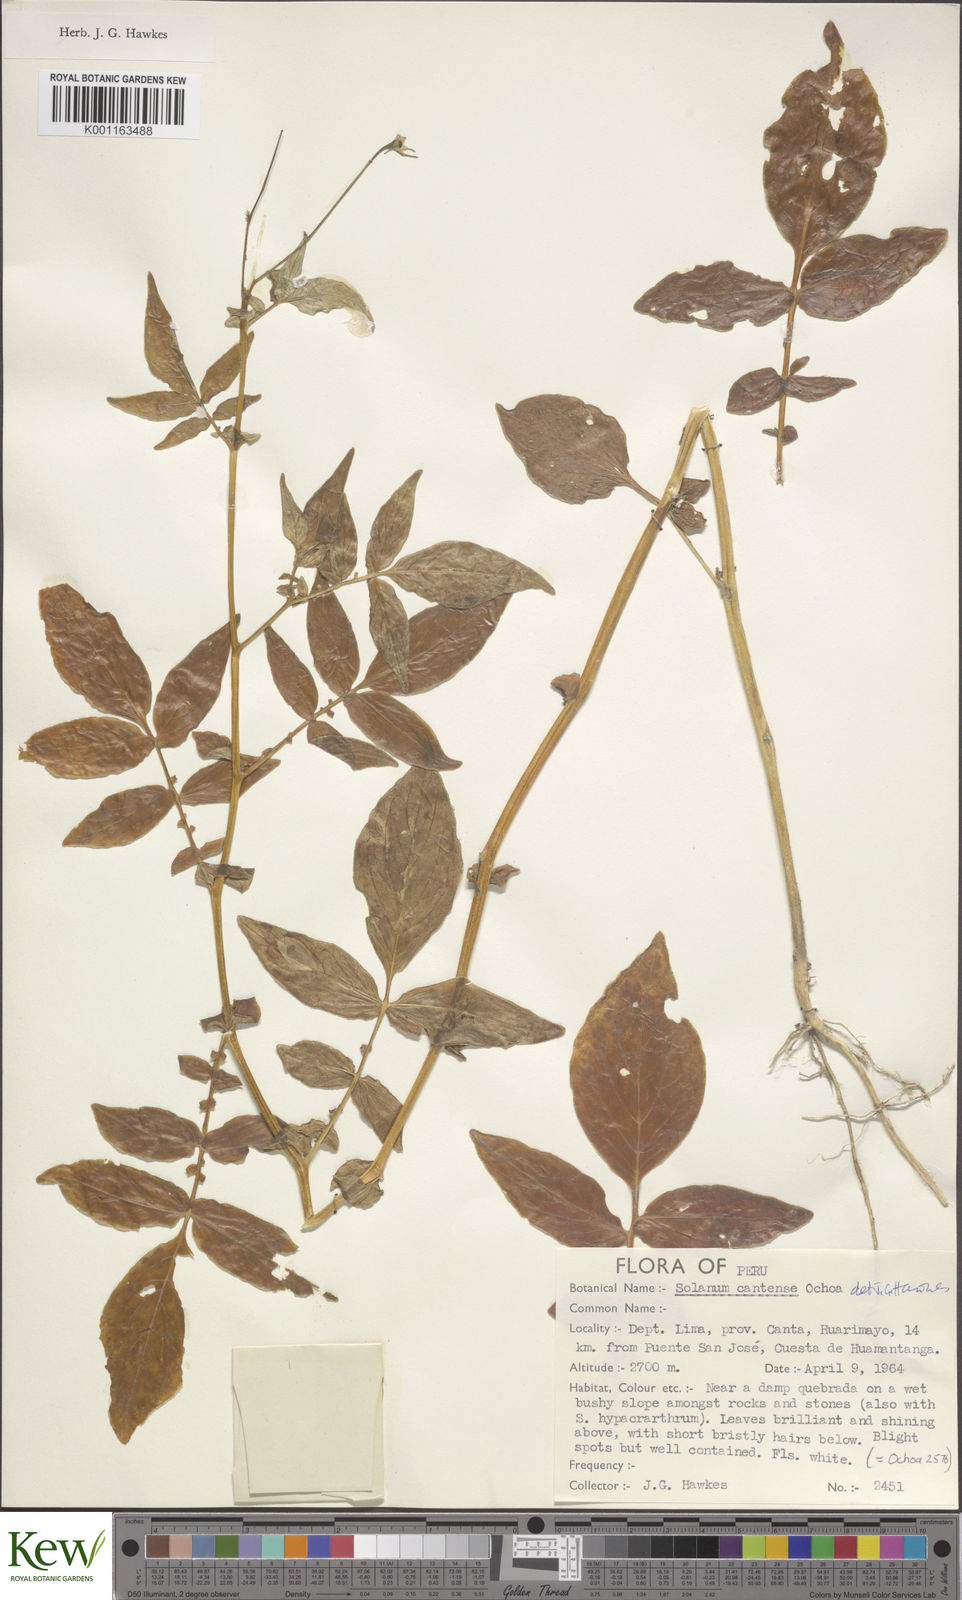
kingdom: Plantae
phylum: Tracheophyta
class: Magnoliopsida
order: Solanales
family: Solanaceae
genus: Solanum
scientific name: Solanum chomatophilum
